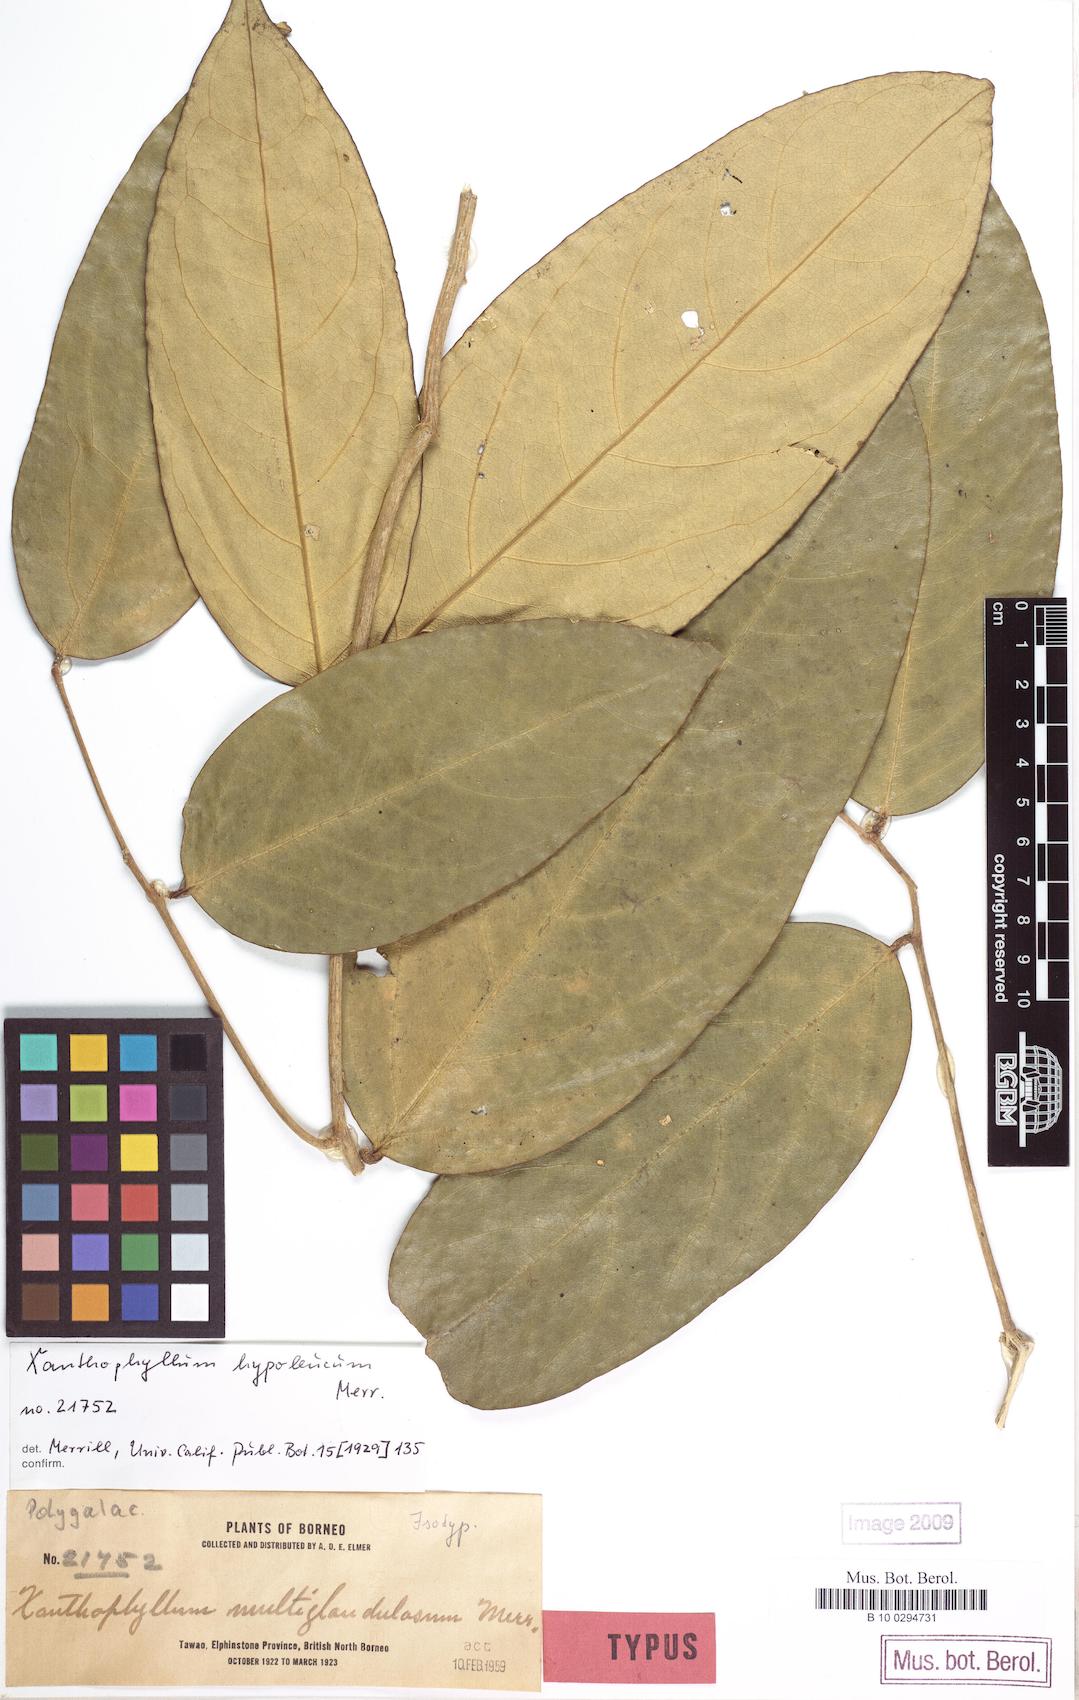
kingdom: Plantae
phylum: Tracheophyta
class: Magnoliopsida
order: Fabales
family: Polygalaceae
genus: Xanthophyllum
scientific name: Xanthophyllum
